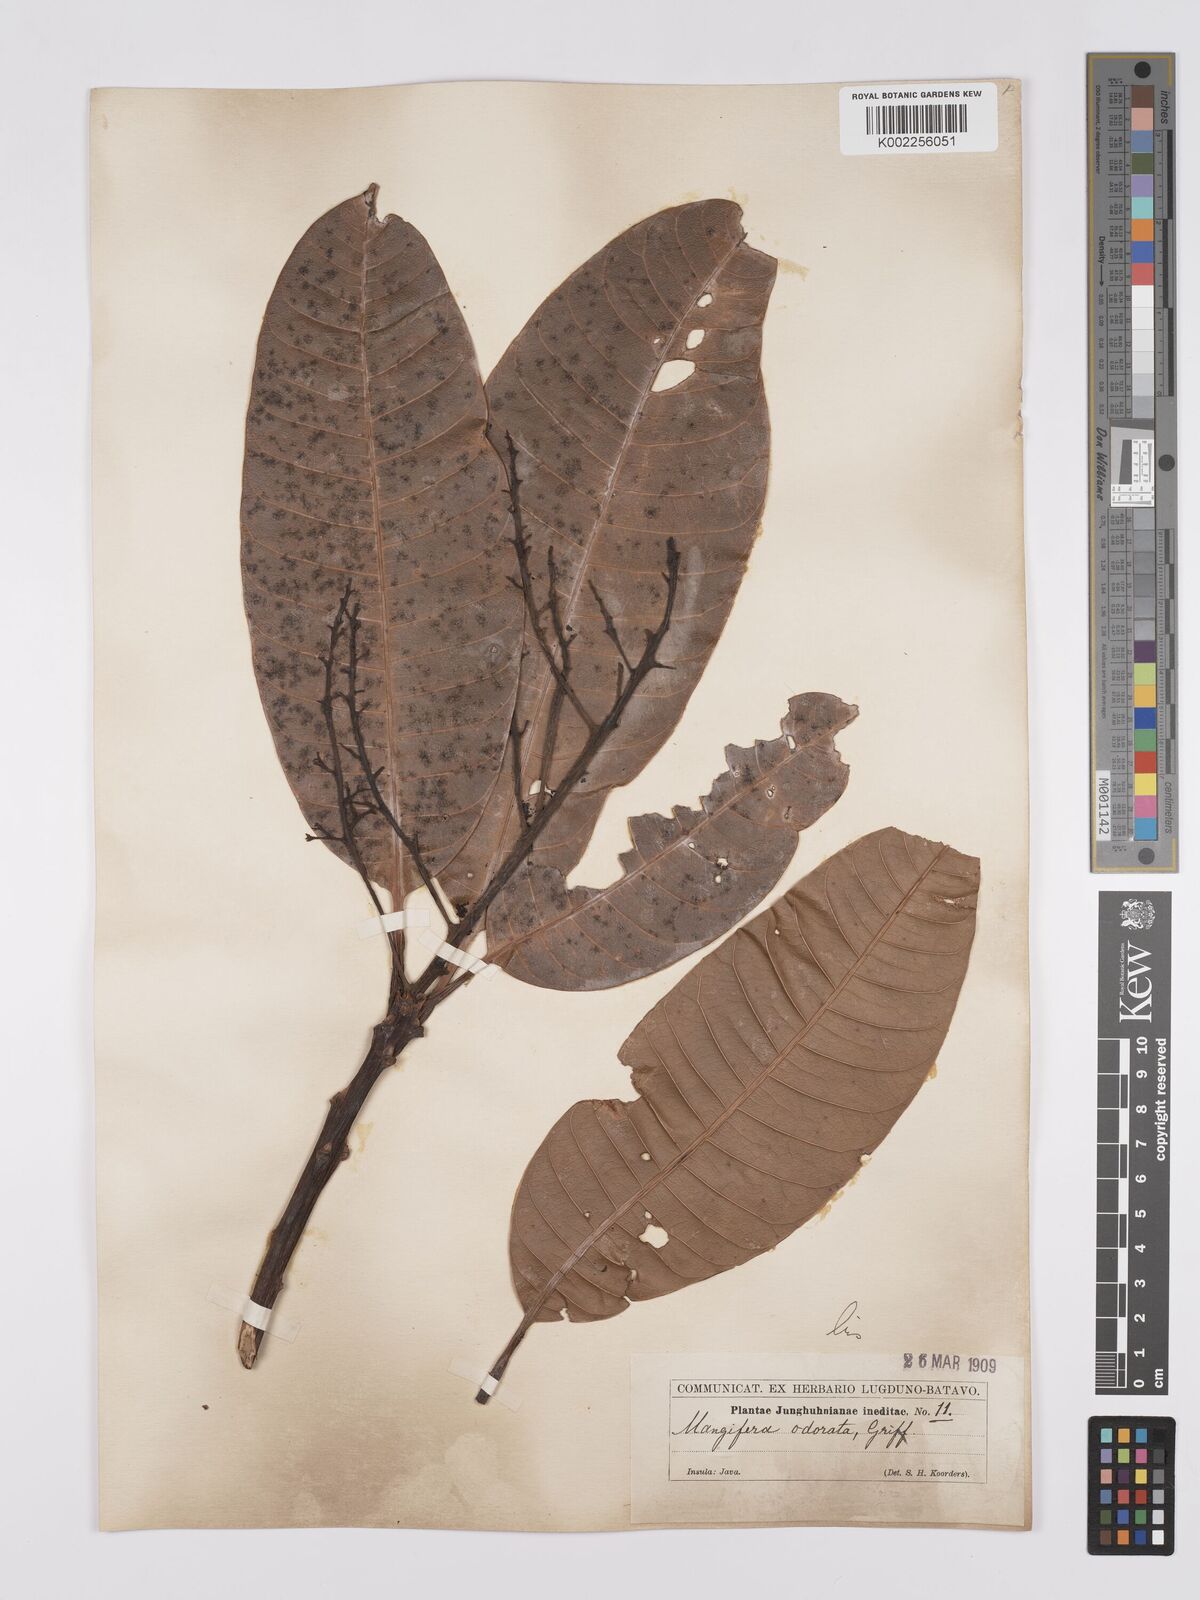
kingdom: Plantae
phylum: Tracheophyta
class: Magnoliopsida
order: Sapindales
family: Anacardiaceae
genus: Mangifera
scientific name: Mangifera odorata
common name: Saipan mango
